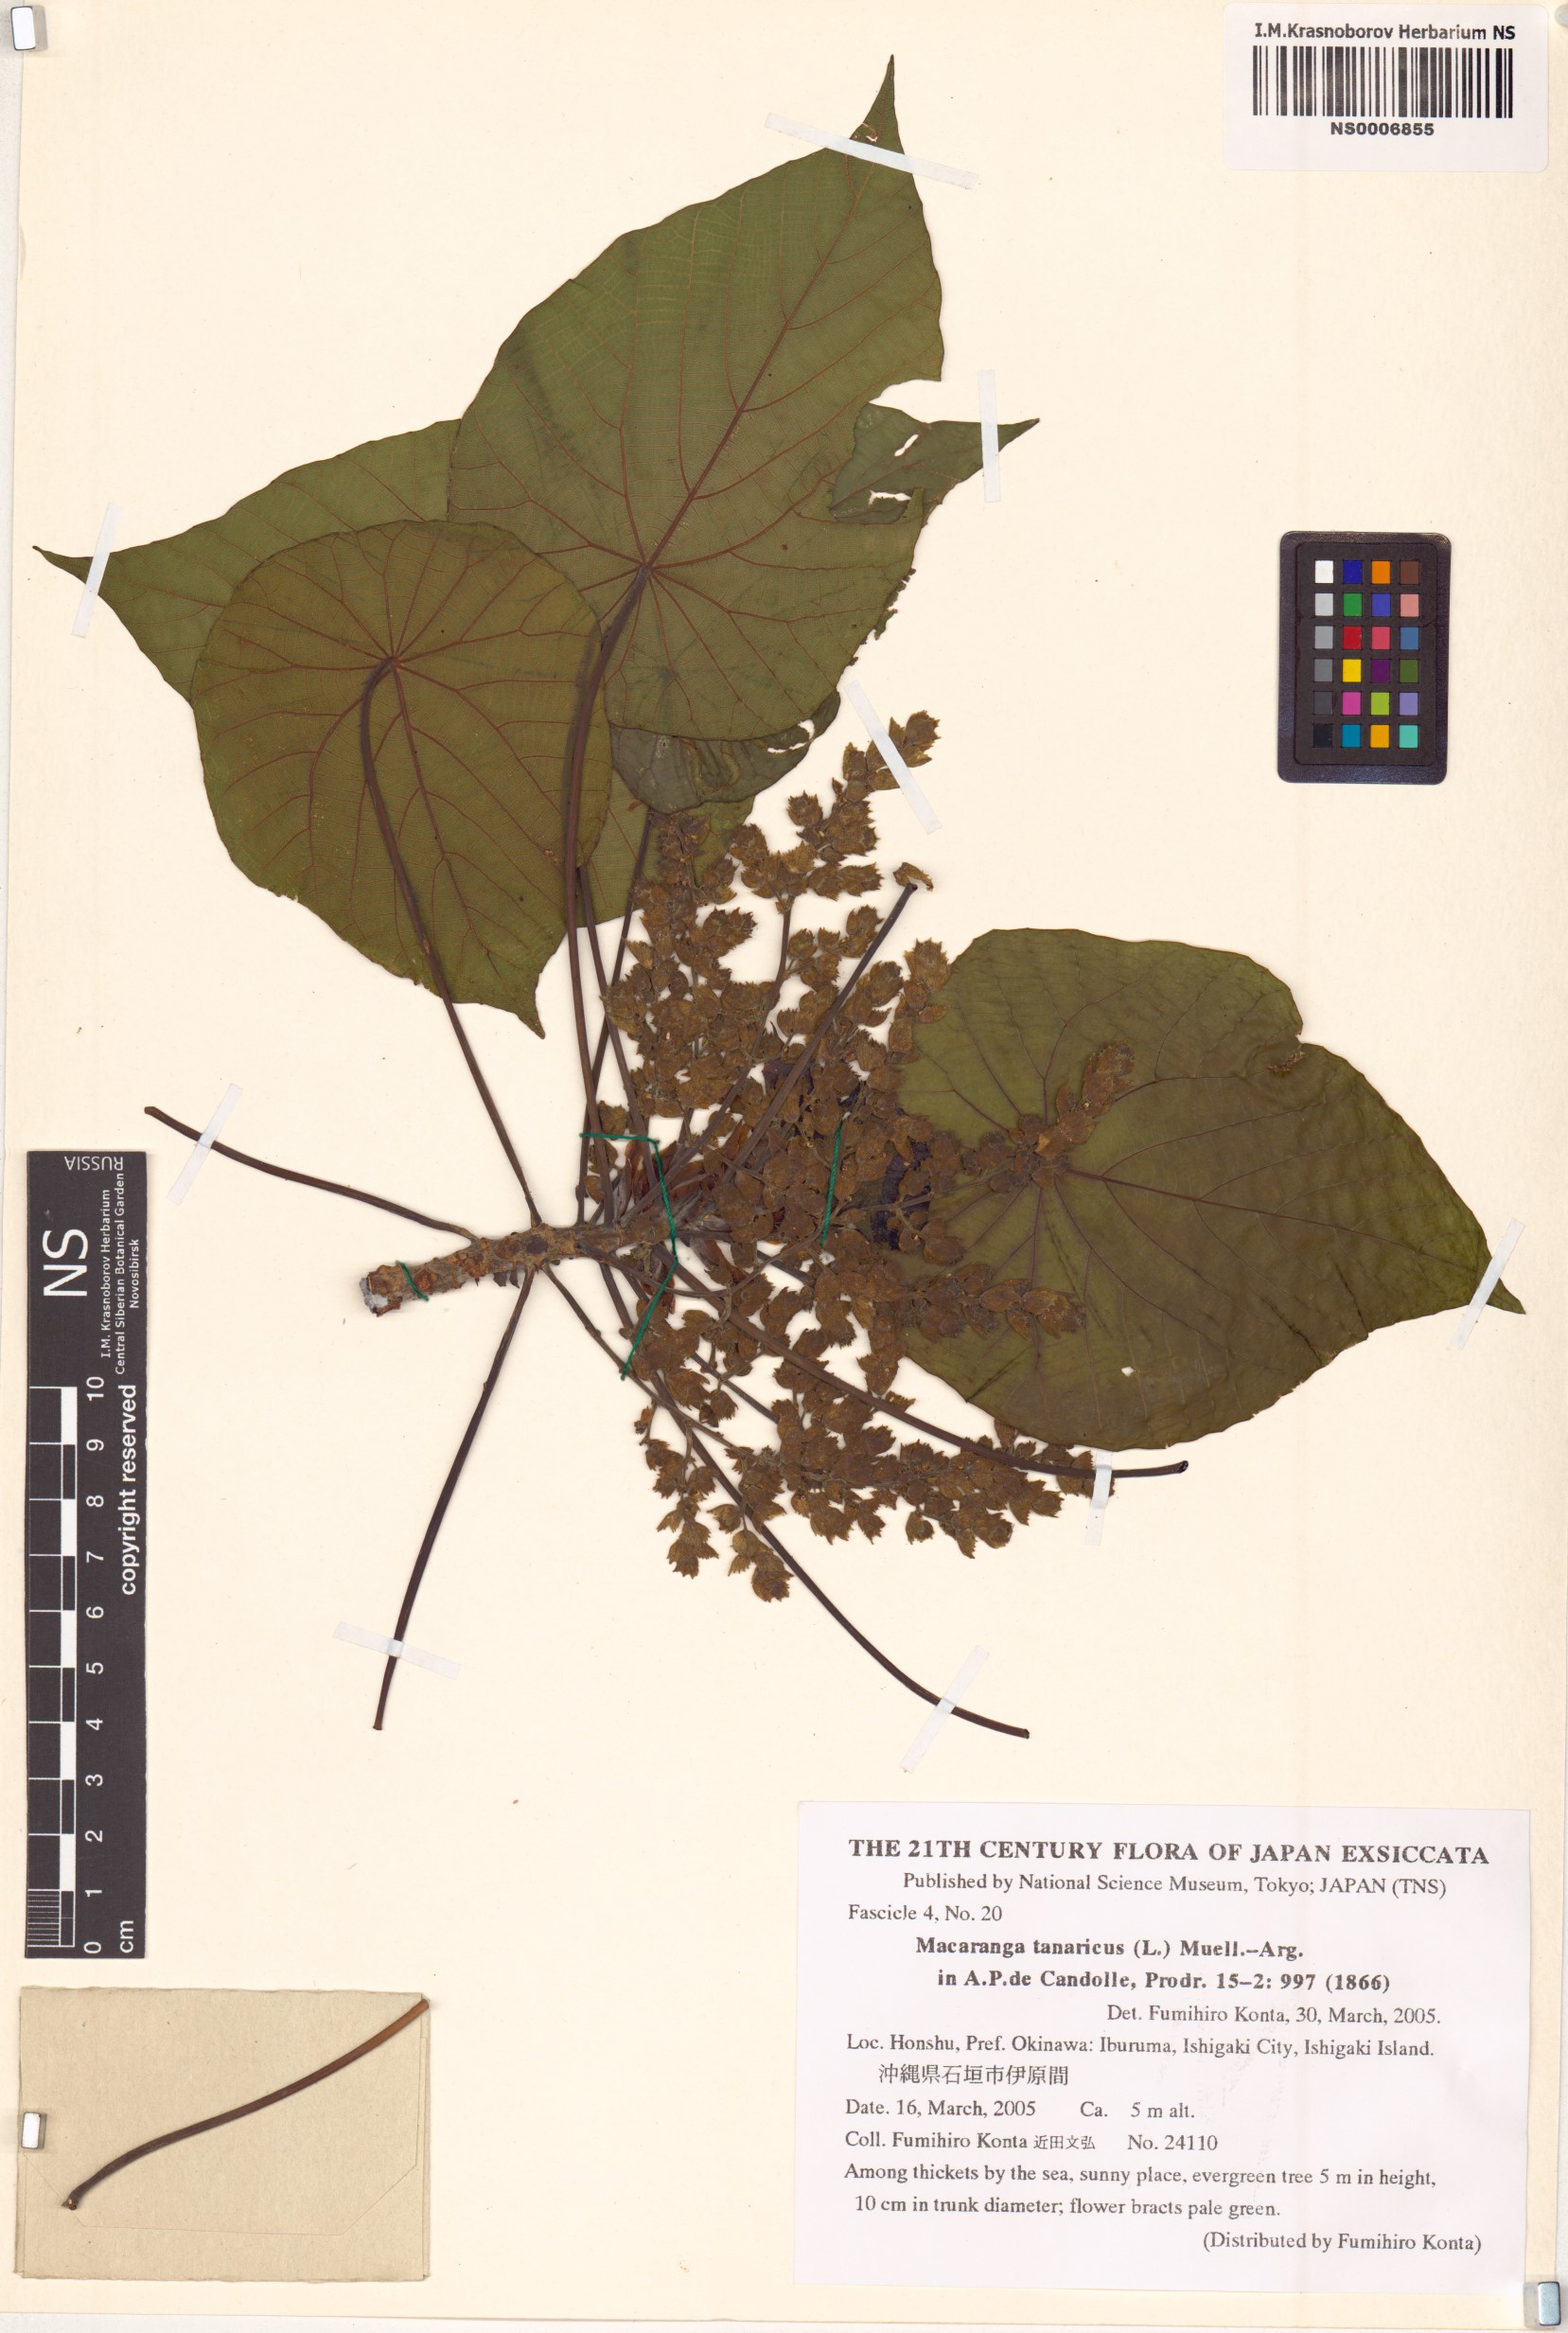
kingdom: Plantae
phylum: Tracheophyta
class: Magnoliopsida
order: Malpighiales
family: Euphorbiaceae
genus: Macaranga
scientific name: Macaranga tanarius
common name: Parasol leaf tree
